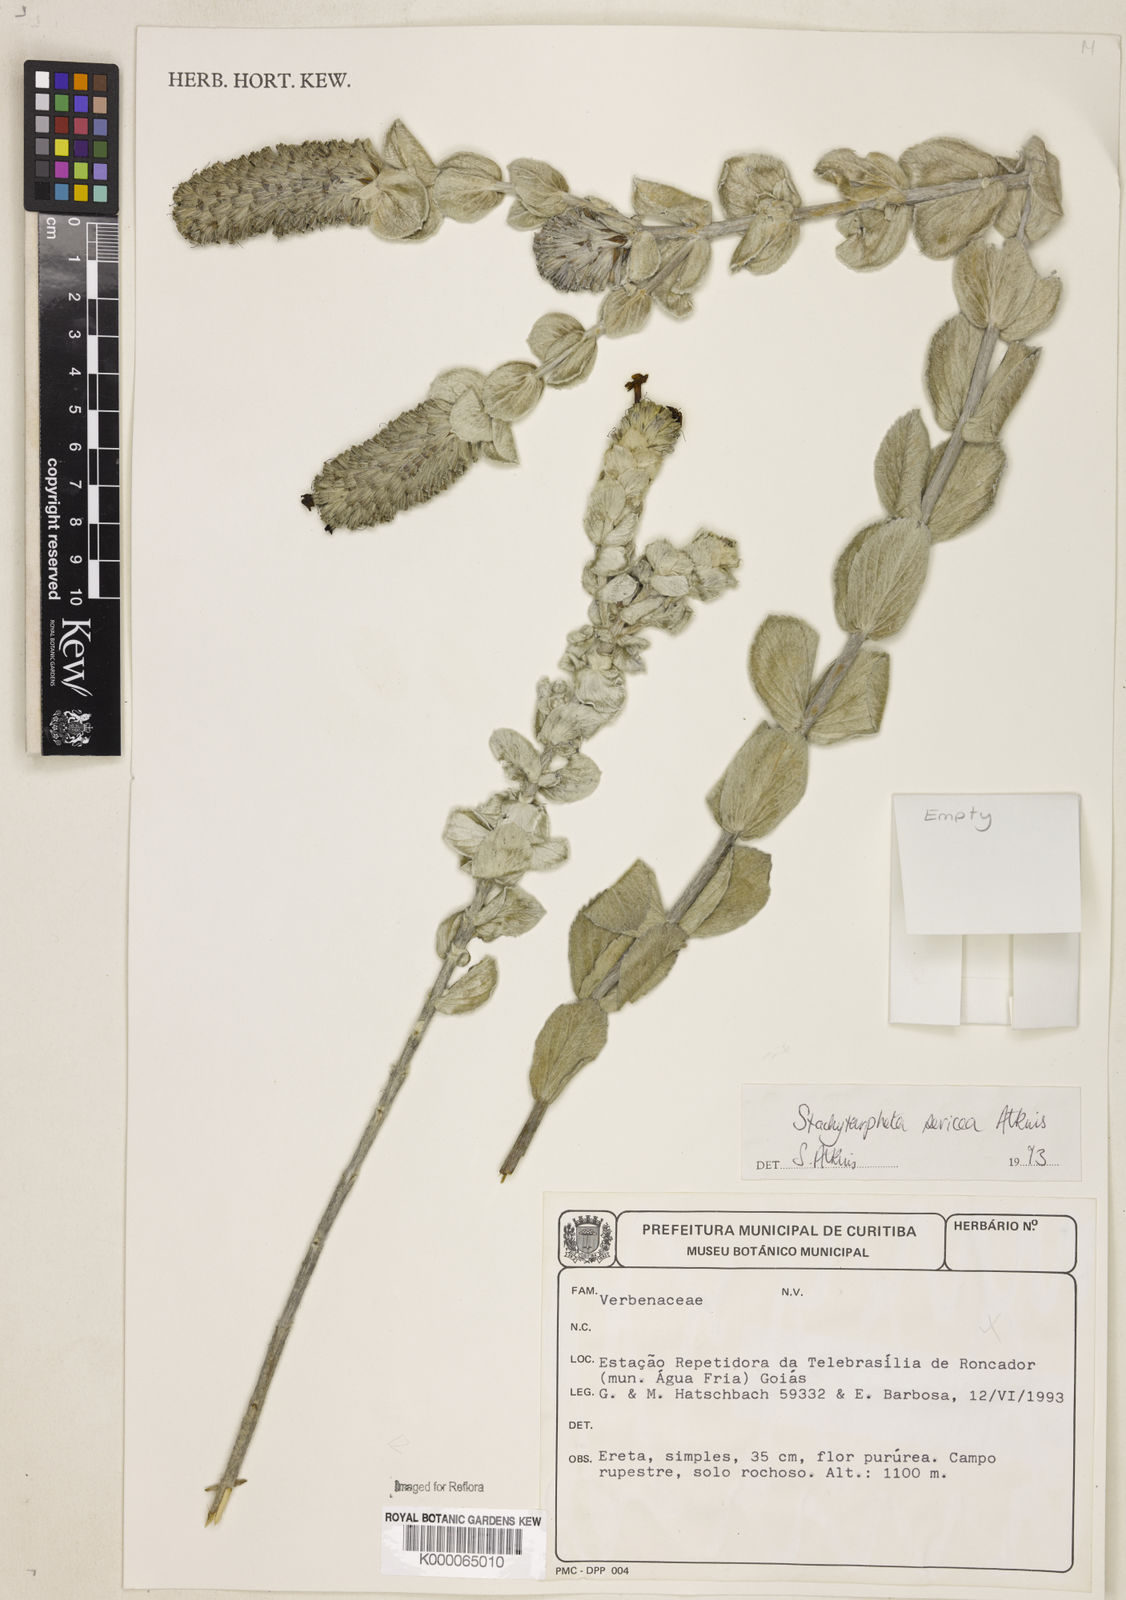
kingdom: Plantae
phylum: Tracheophyta
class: Magnoliopsida
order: Lamiales
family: Verbenaceae
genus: Stachytarpheta
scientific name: Stachytarpheta sericea
